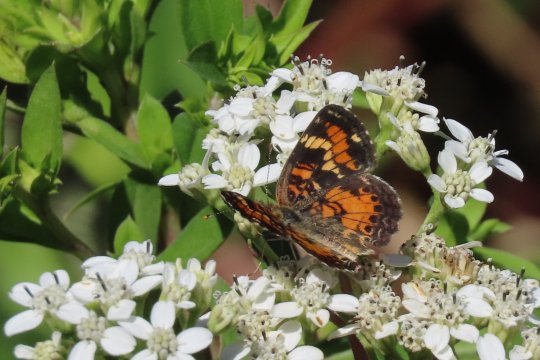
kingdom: Animalia
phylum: Arthropoda
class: Insecta
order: Lepidoptera
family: Nymphalidae
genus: Phyciodes
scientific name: Phyciodes phaon
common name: Phaon Crescent
